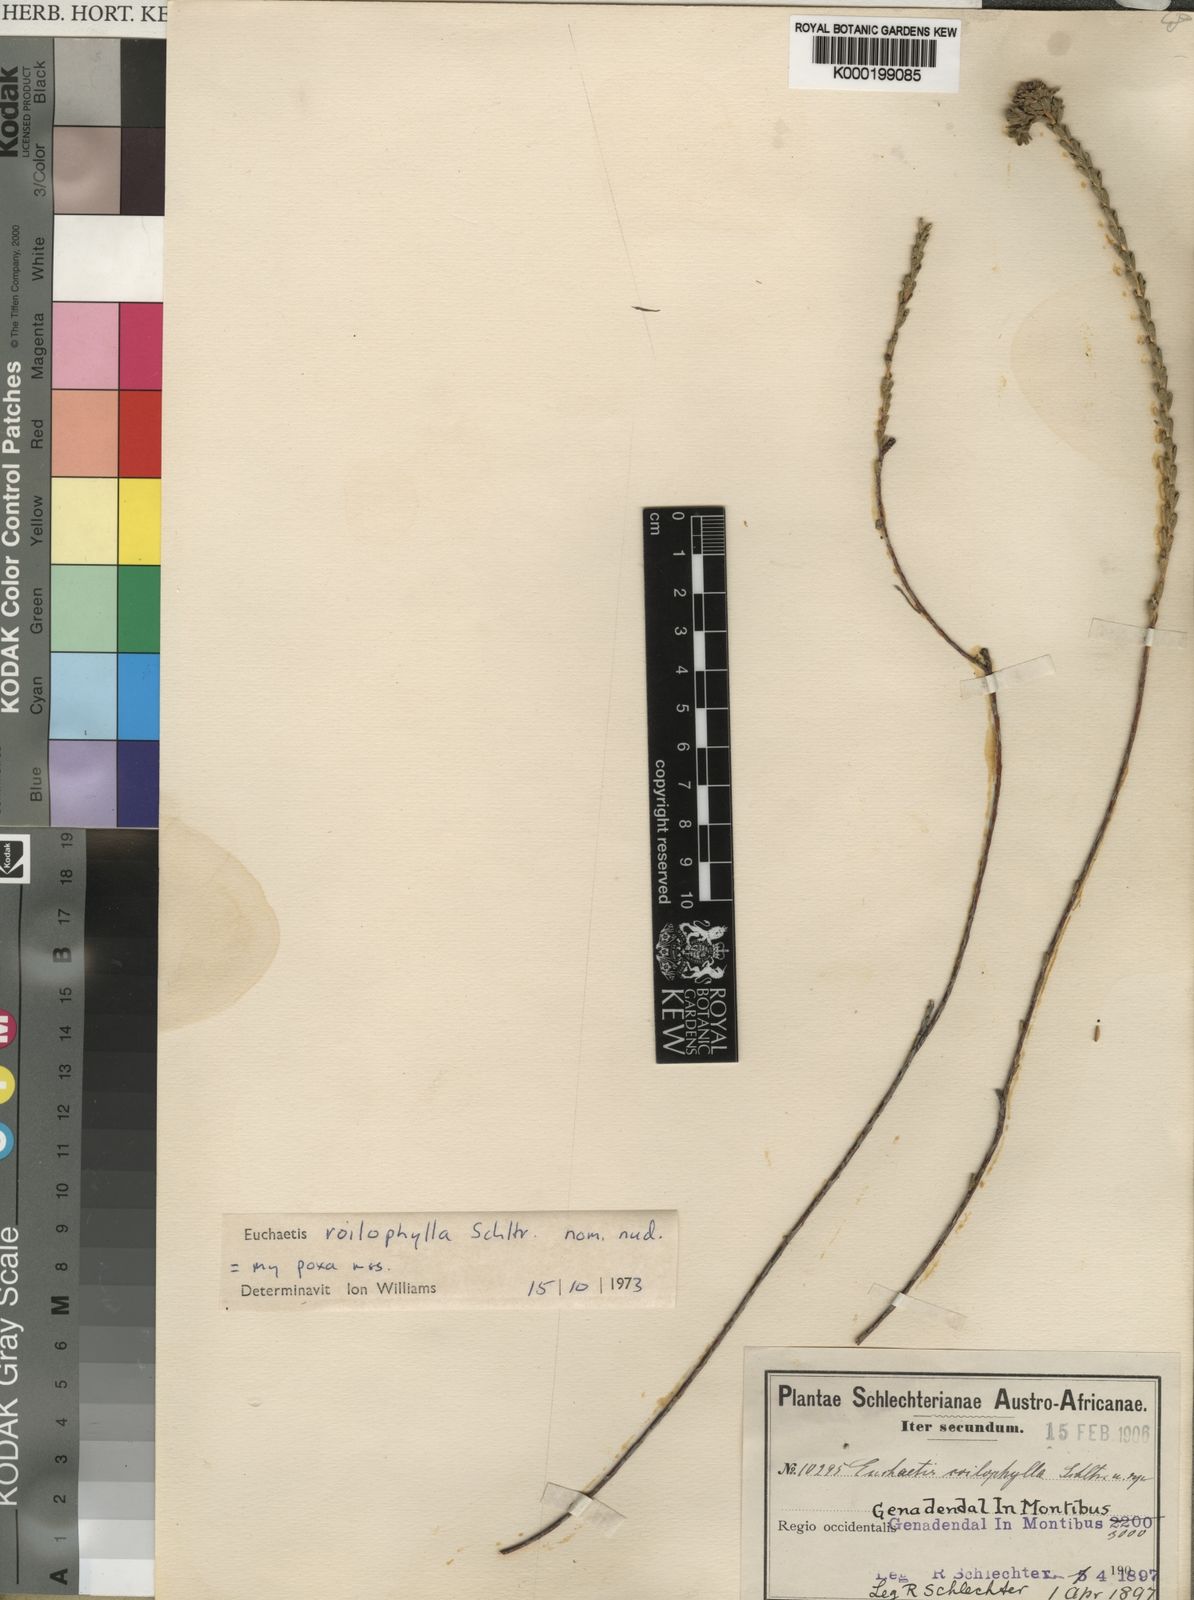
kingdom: Plantae
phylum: Tracheophyta
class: Magnoliopsida
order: Sapindales
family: Rutaceae
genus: Euchaetis
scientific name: Euchaetis
